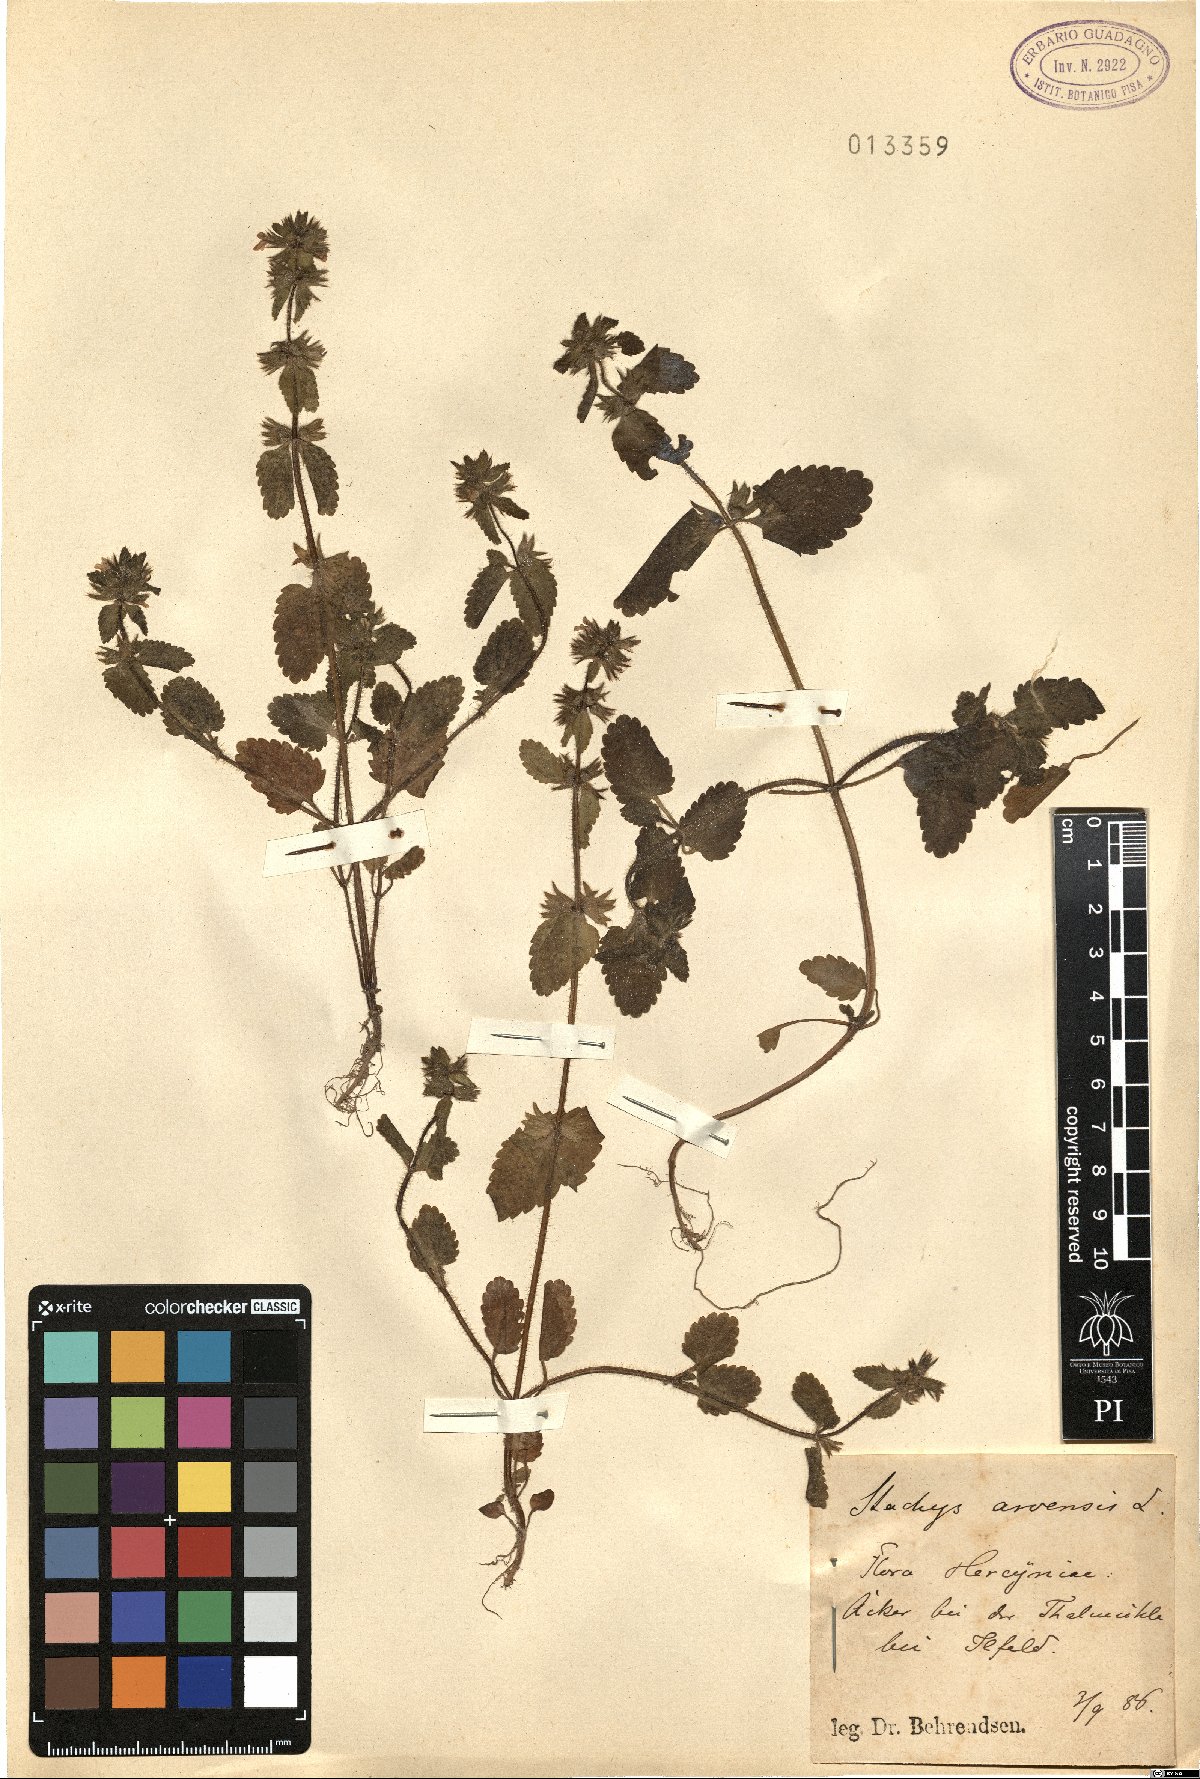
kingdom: Plantae
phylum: Tracheophyta
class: Magnoliopsida
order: Lamiales
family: Lamiaceae
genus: Stachys
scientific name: Stachys arvensis
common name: Field woundwort
